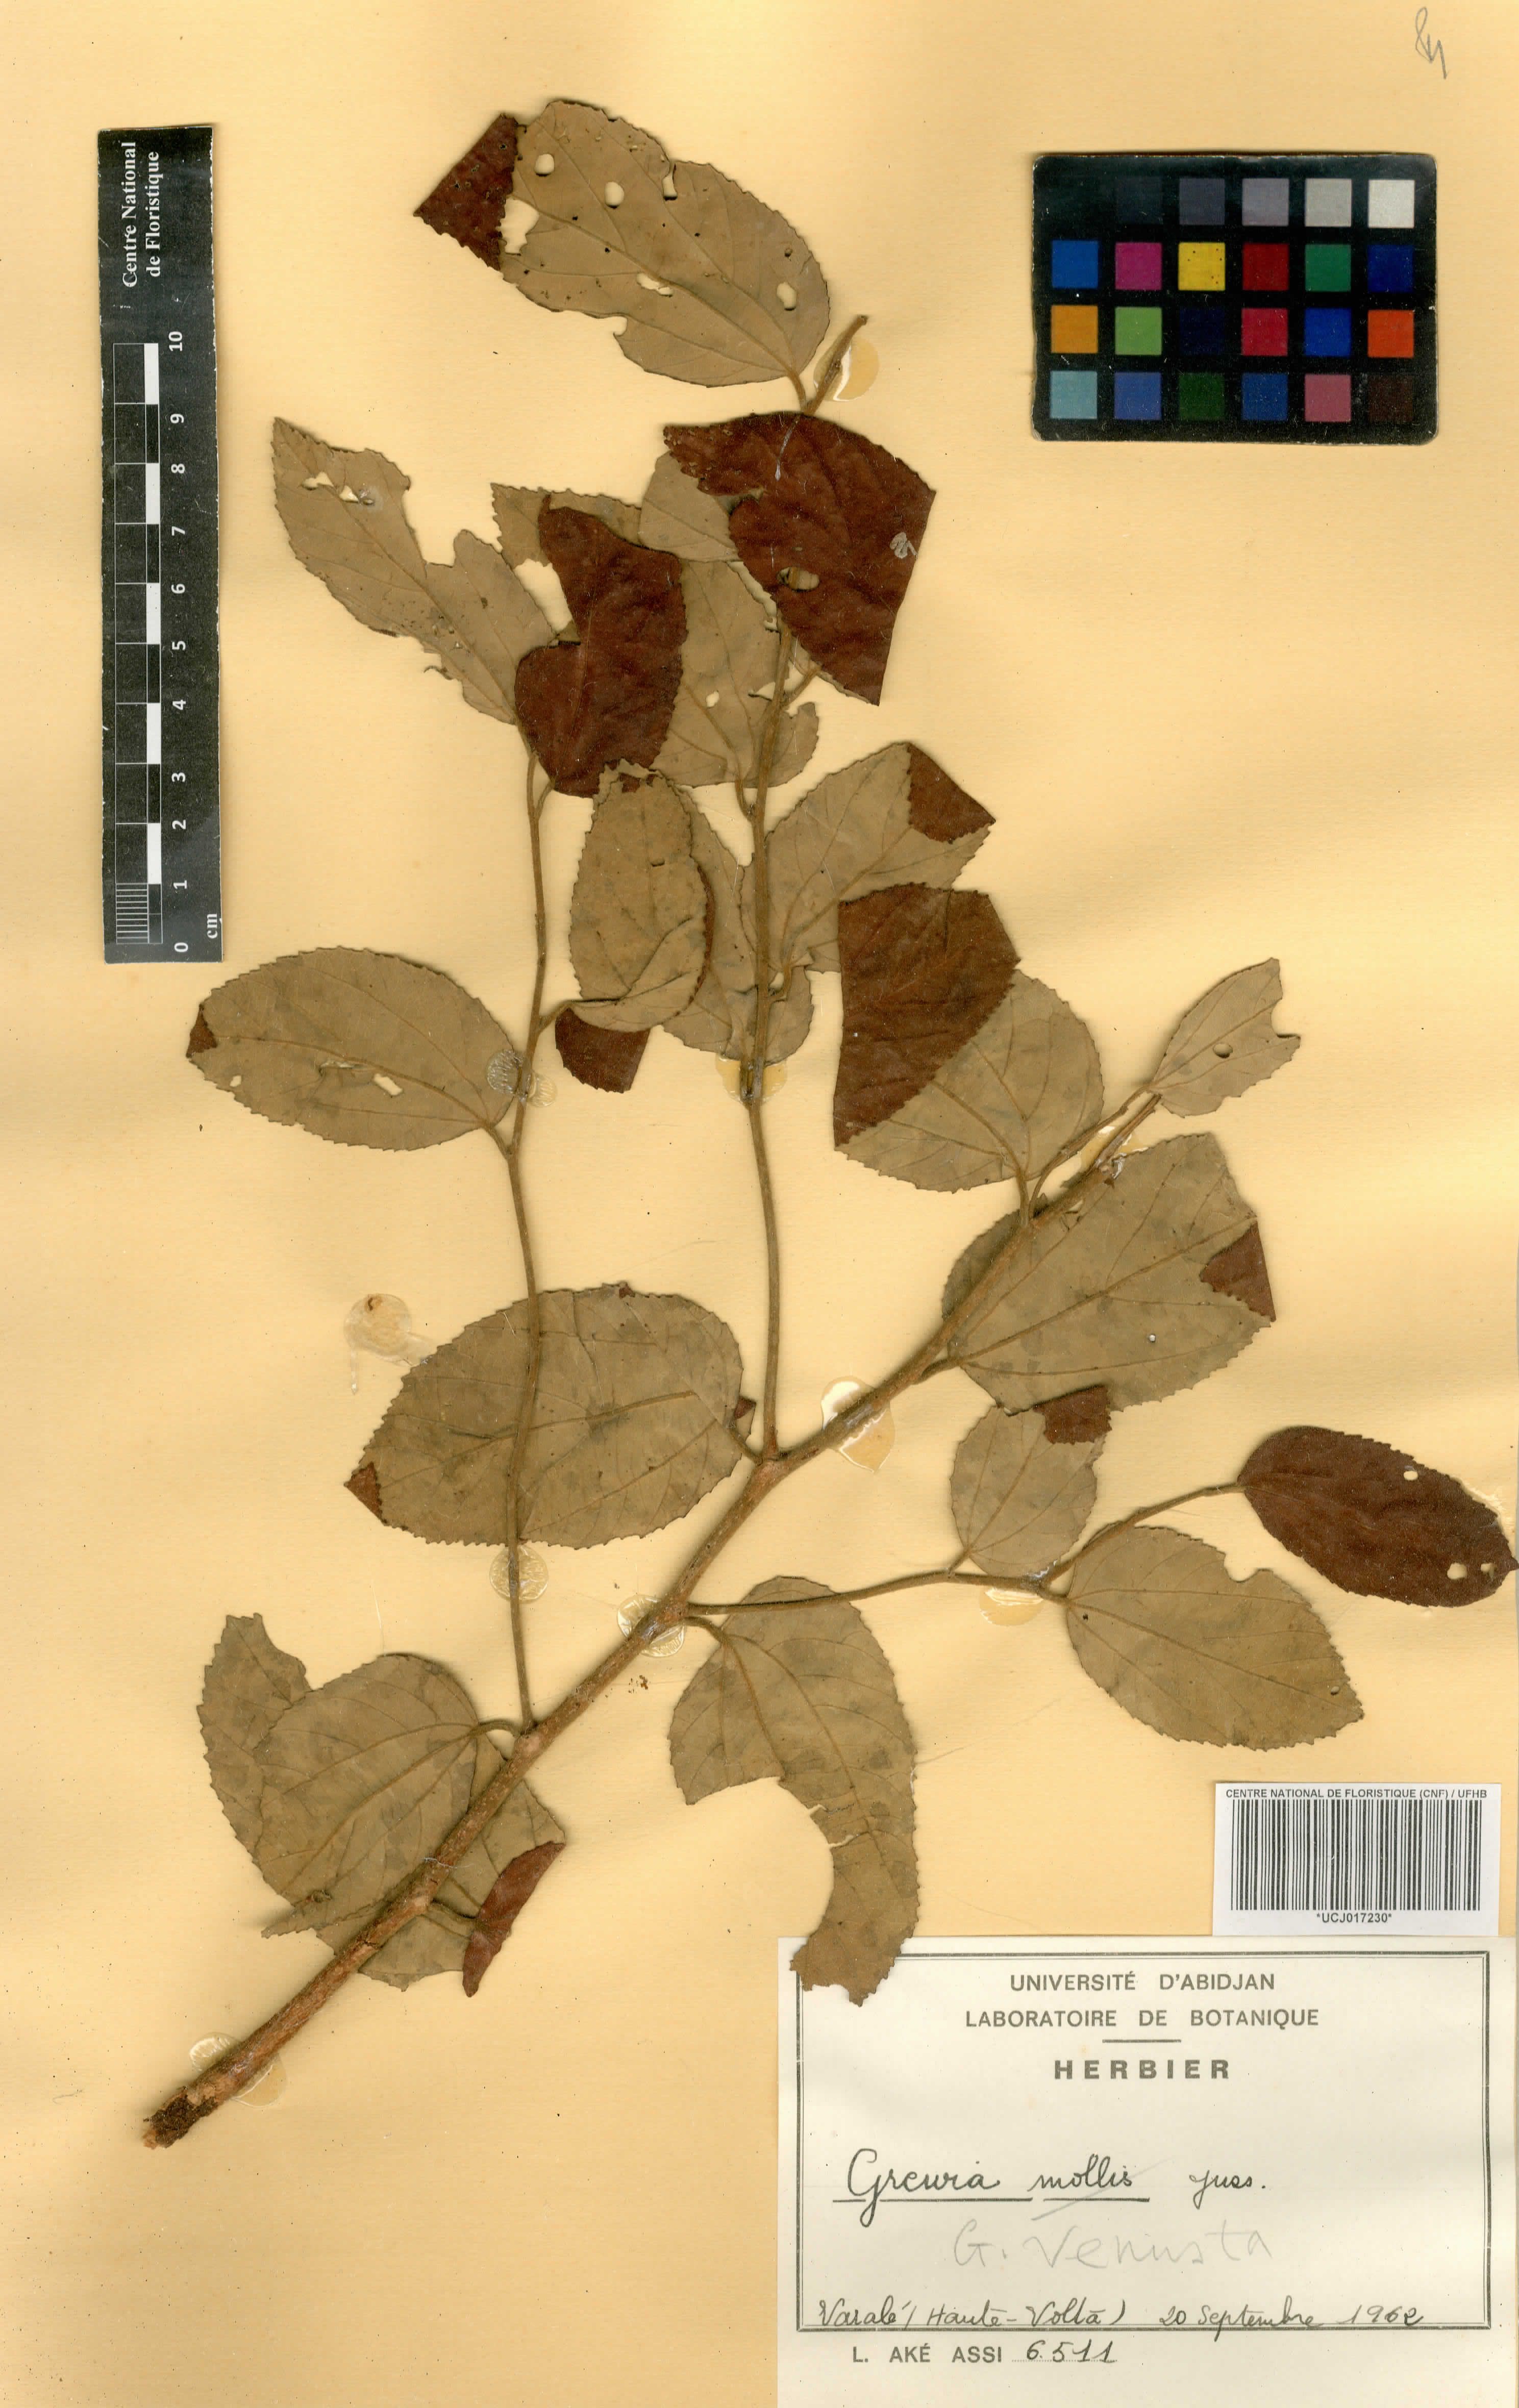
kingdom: Plantae
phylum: Tracheophyta
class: Magnoliopsida
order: Malvales
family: Malvaceae
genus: Grewia
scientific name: Grewia mollis
